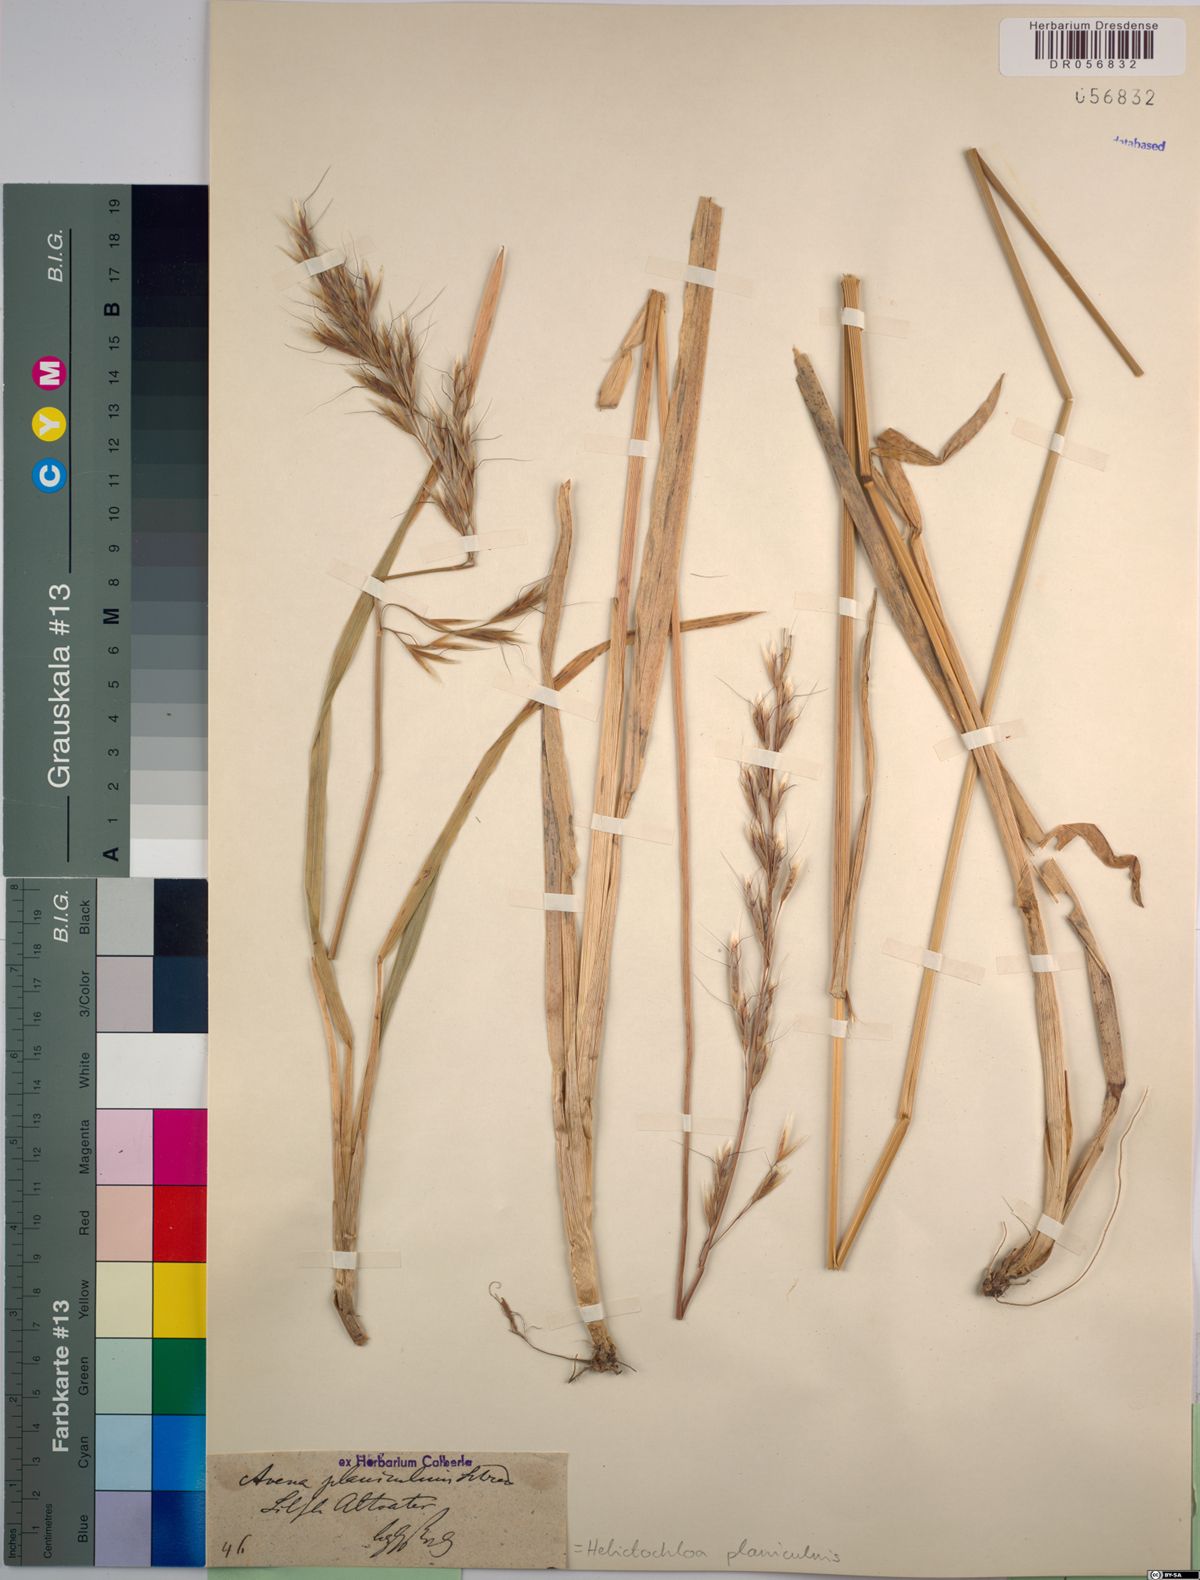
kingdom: Plantae
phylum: Tracheophyta
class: Liliopsida
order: Poales
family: Poaceae
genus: Helictochloa
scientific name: Helictochloa planiculmis
